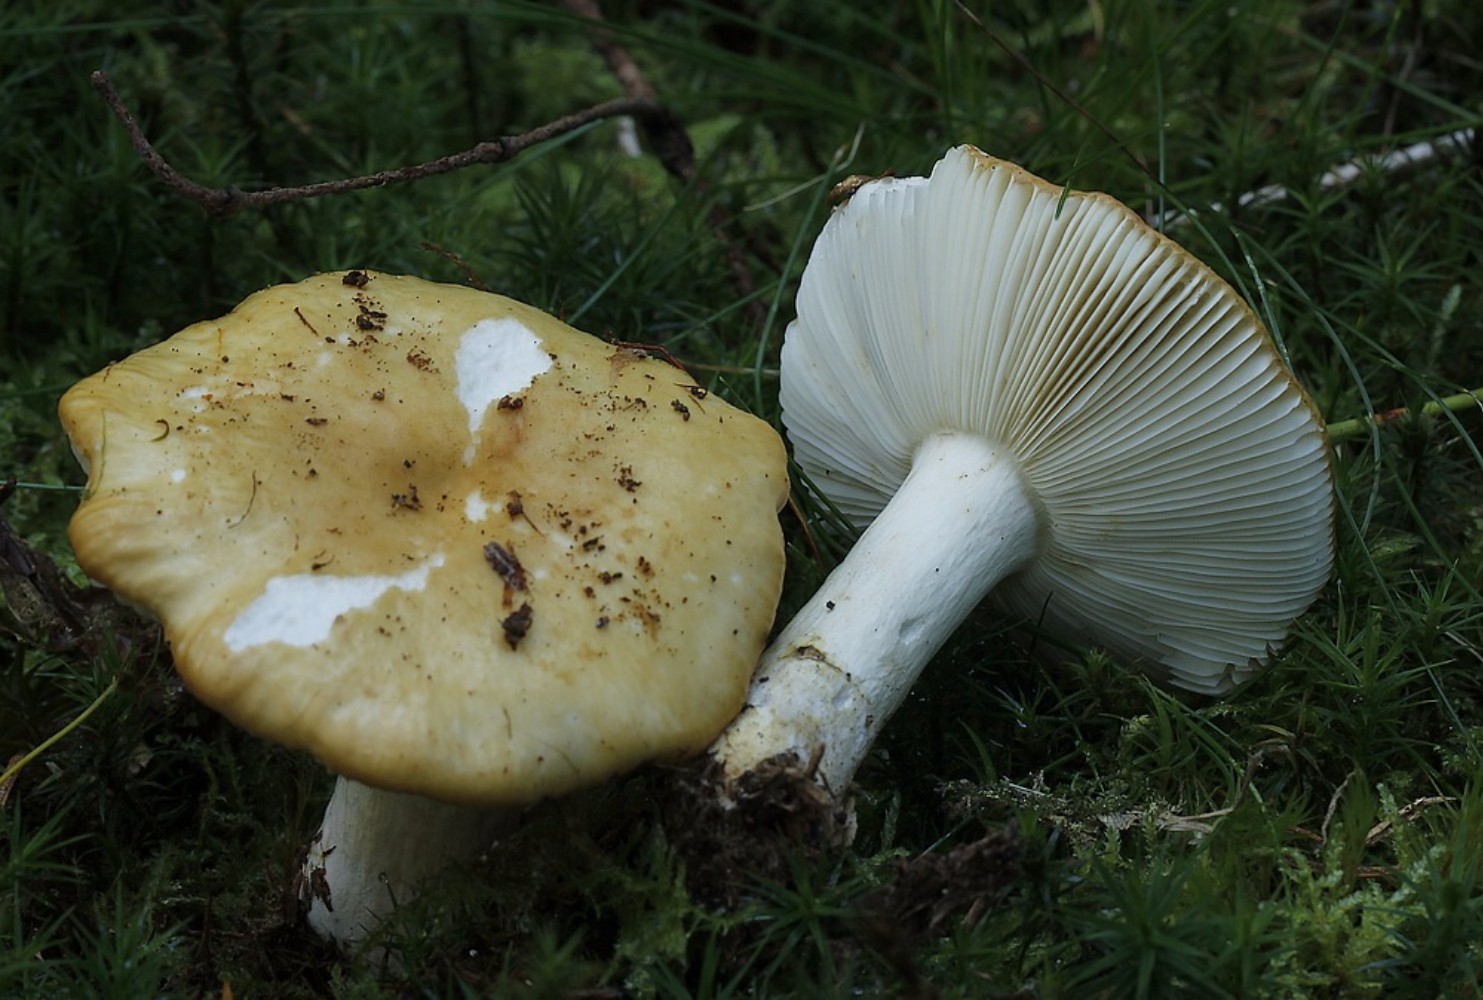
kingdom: Fungi
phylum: Basidiomycota
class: Agaricomycetes
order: Russulales
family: Russulaceae
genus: Russula
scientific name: Russula ochroleuca
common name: okkergul skørhat
